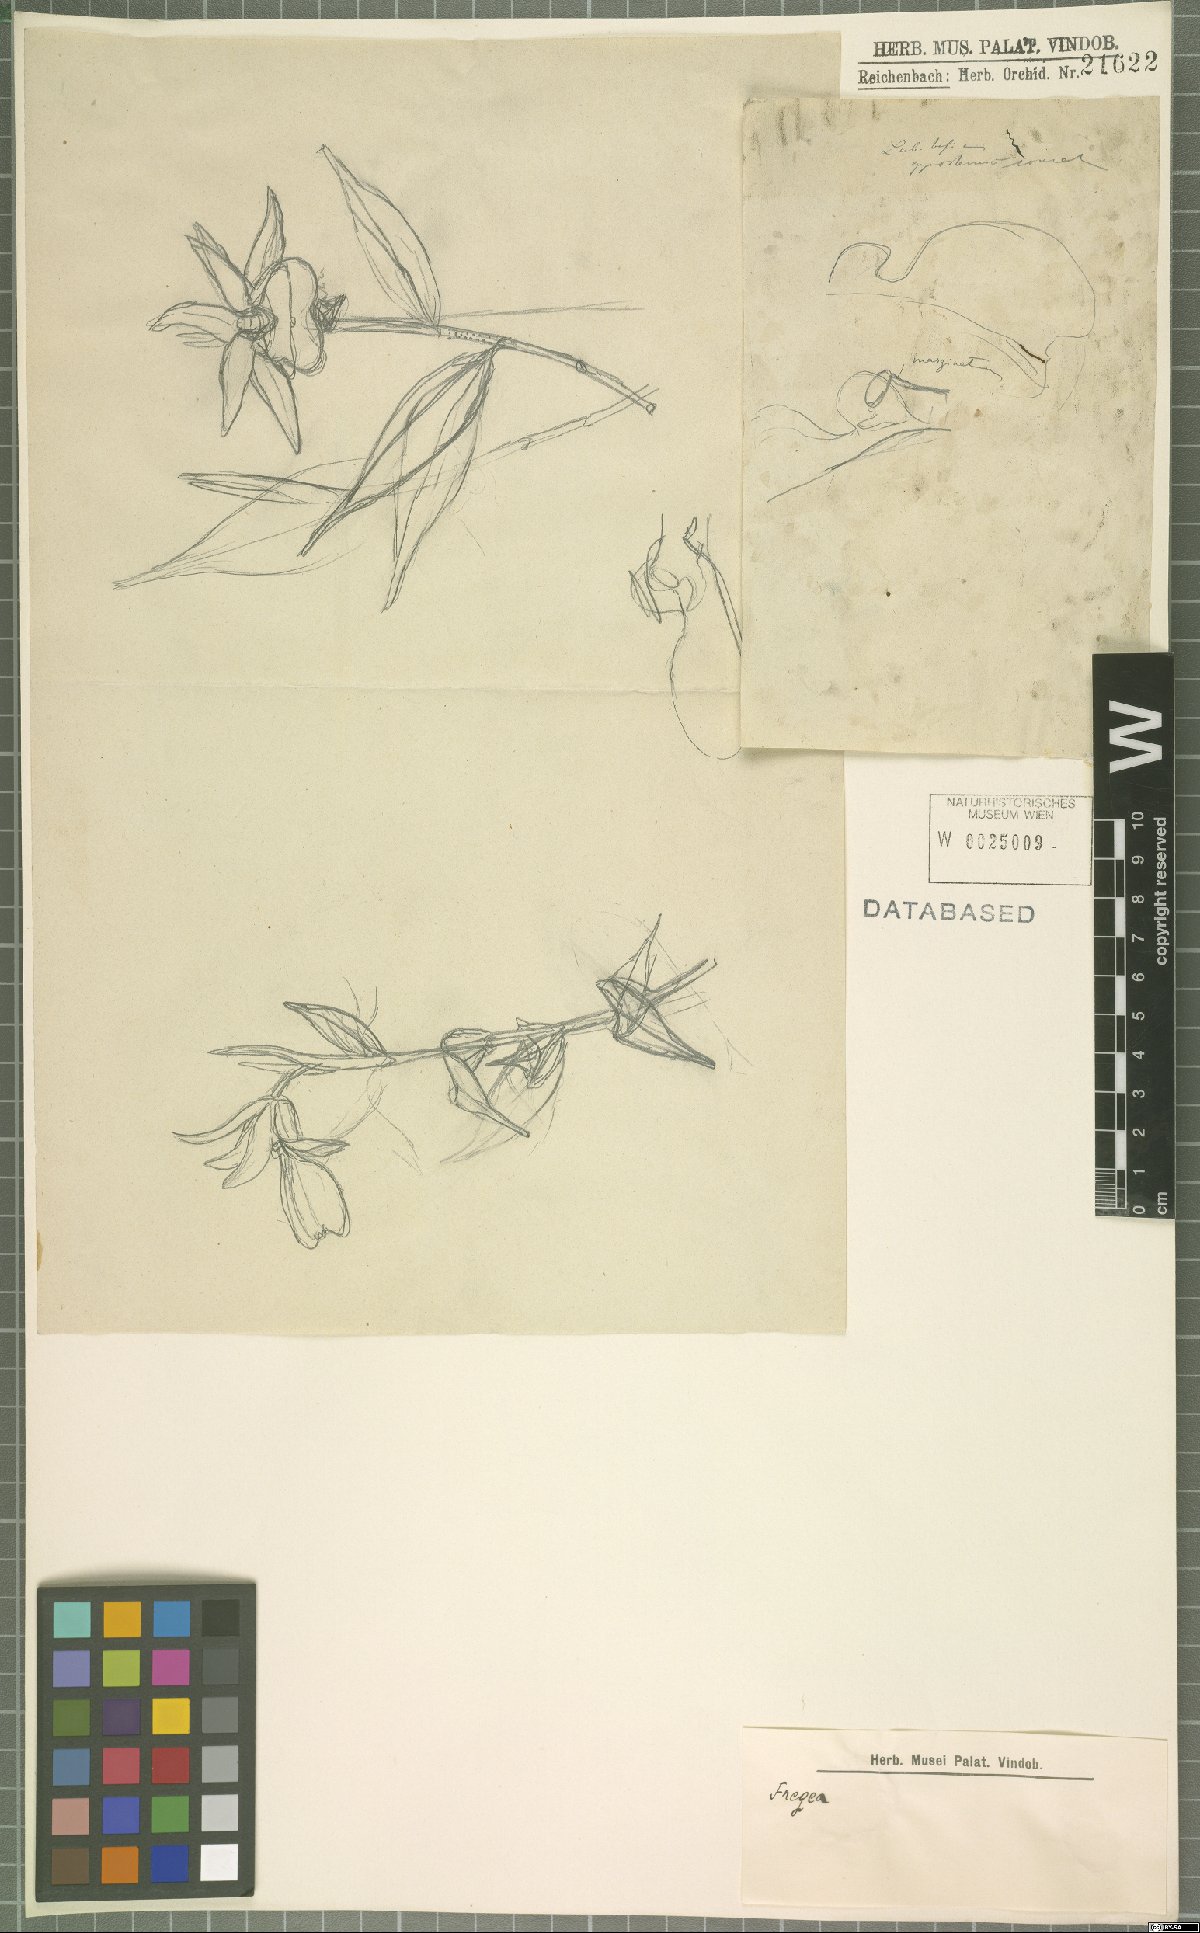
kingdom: Plantae
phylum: Tracheophyta
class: Liliopsida
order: Asparagales
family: Orchidaceae
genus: Sobralia
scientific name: Sobralia
